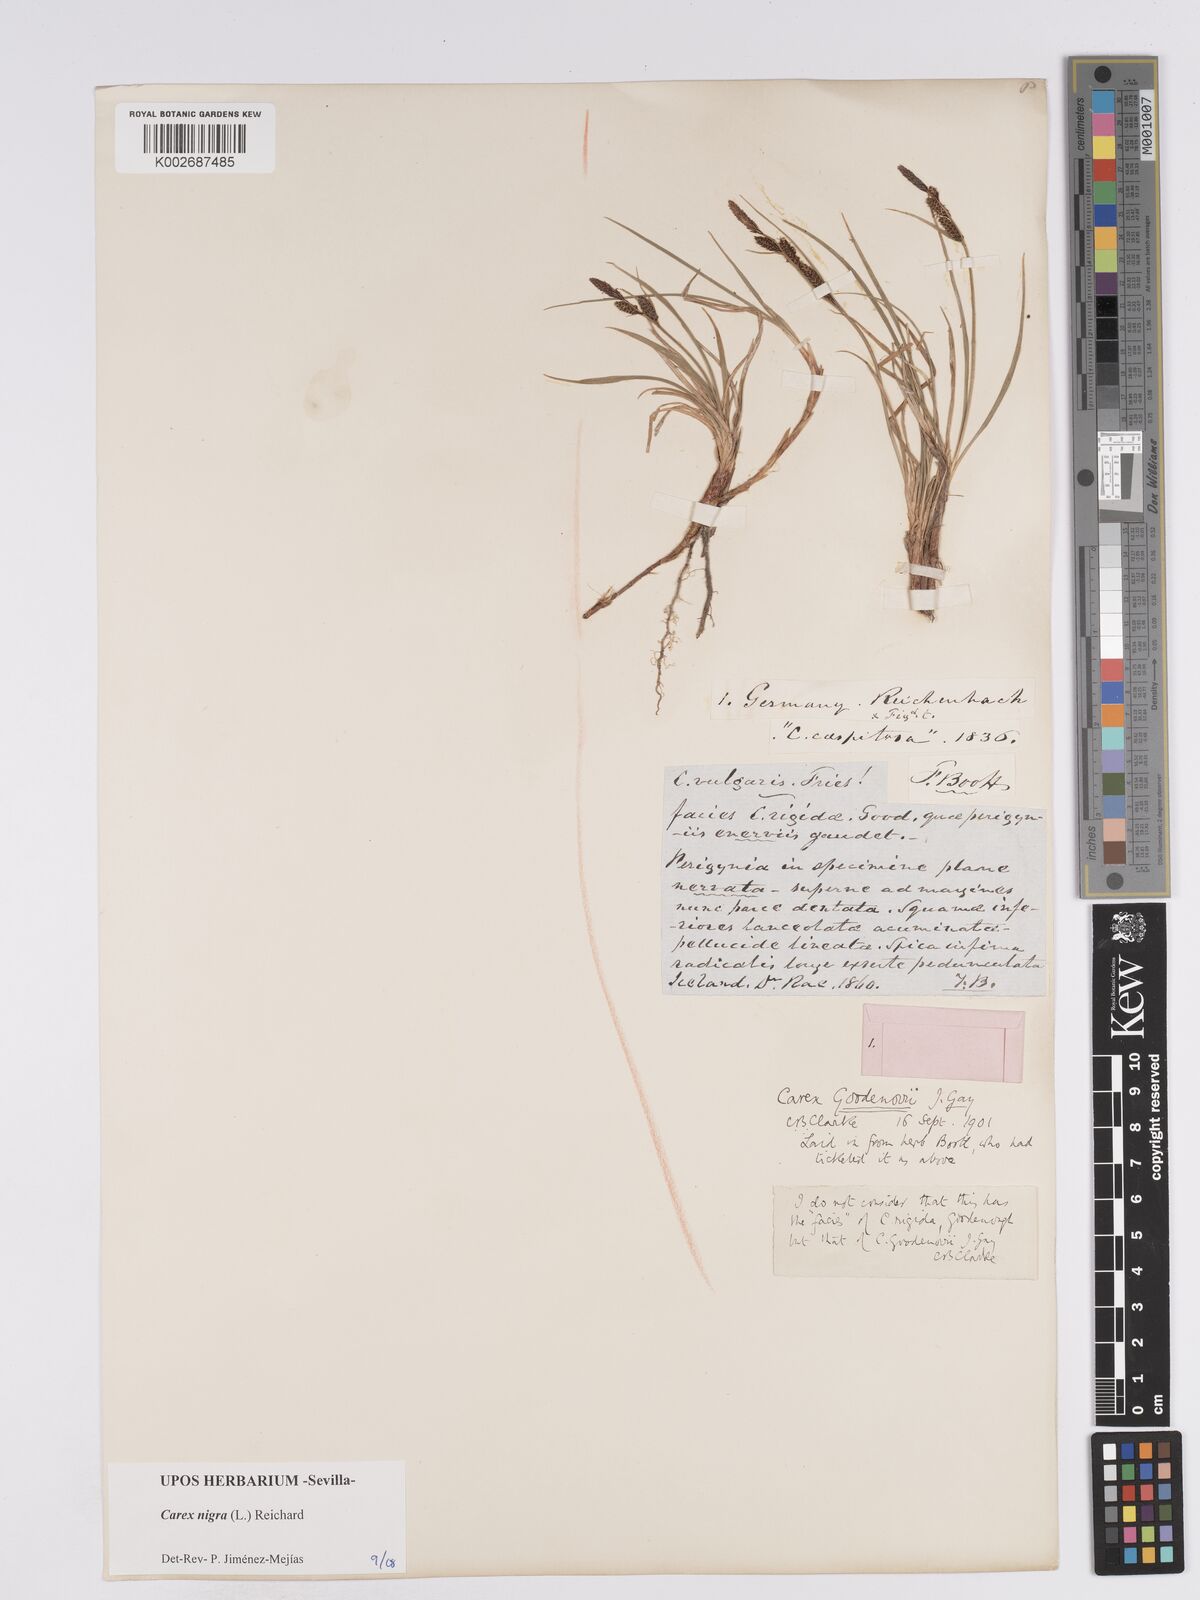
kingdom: Plantae
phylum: Tracheophyta
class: Liliopsida
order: Poales
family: Cyperaceae
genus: Carex
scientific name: Carex nigra
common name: Common sedge
